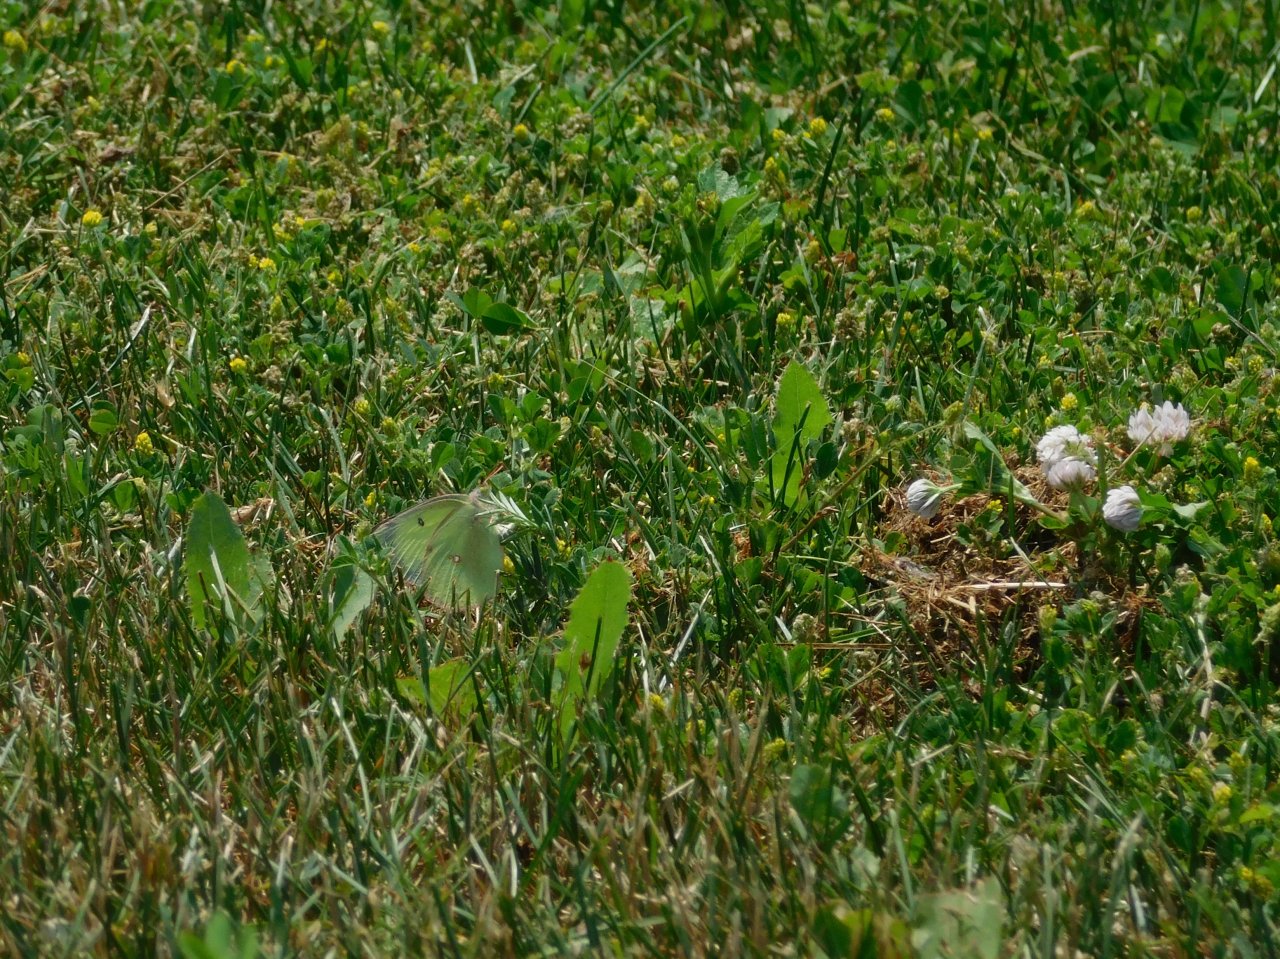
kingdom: Animalia
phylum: Arthropoda
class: Insecta
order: Lepidoptera
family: Pieridae
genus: Colias
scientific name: Colias philodice
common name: Clouded Sulphur
